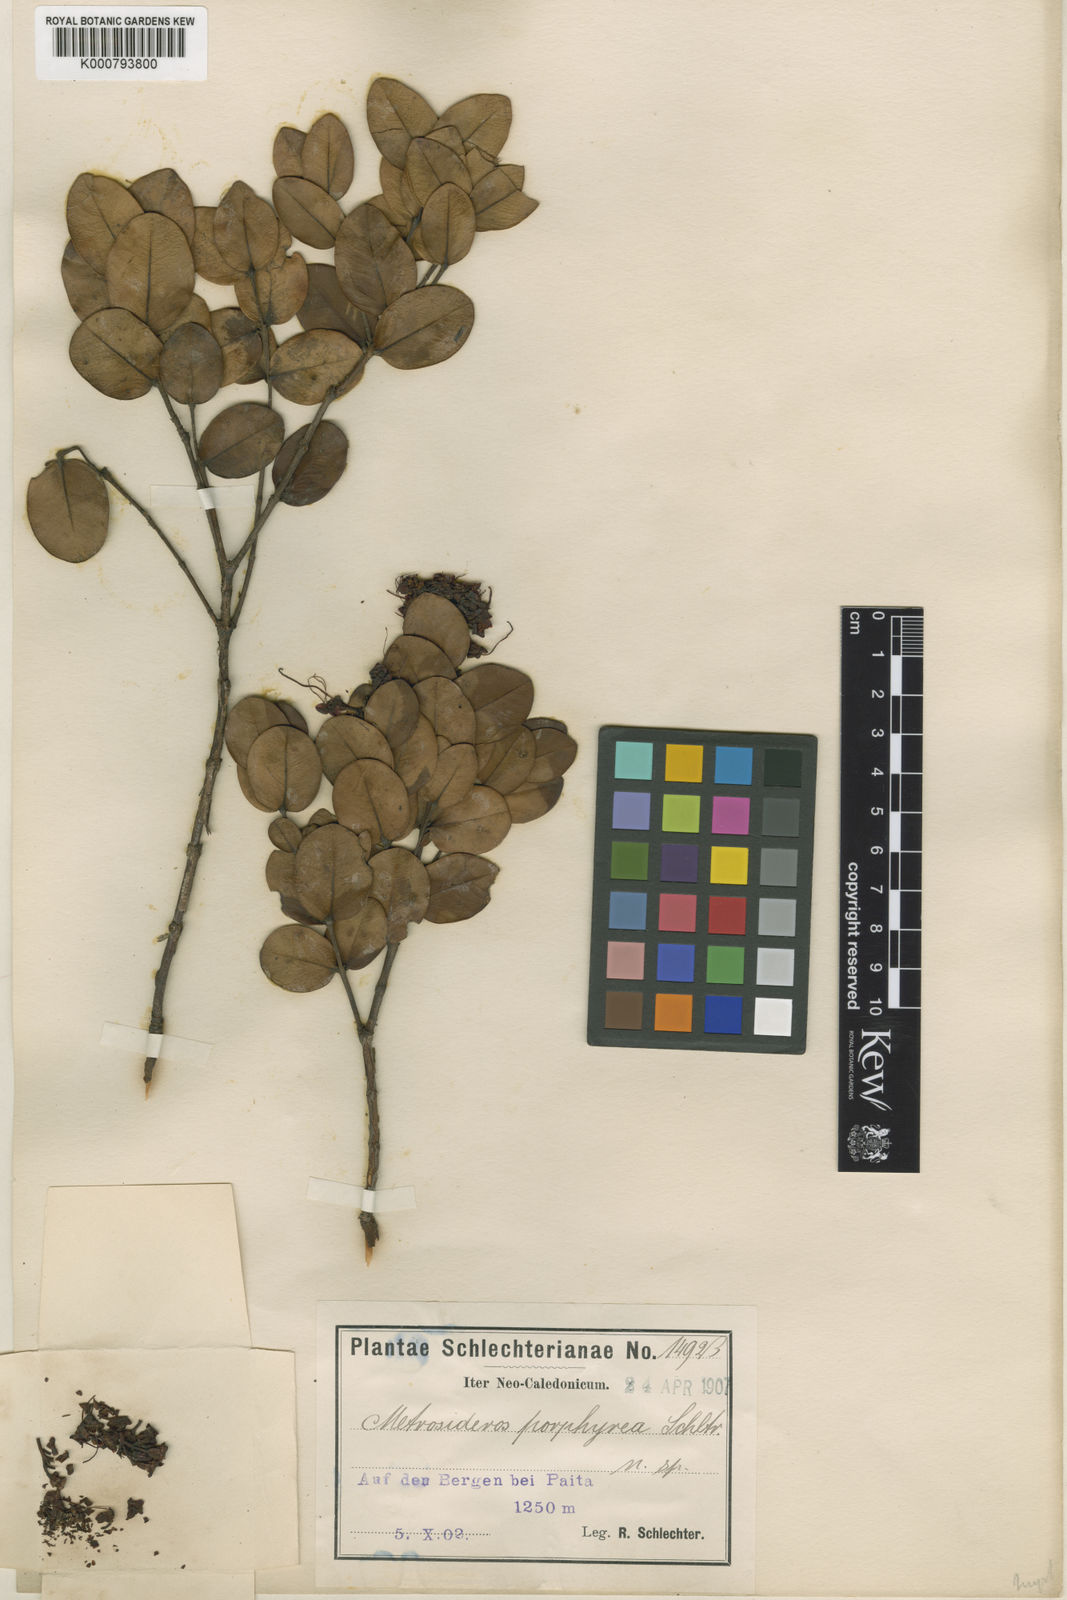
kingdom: Plantae
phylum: Tracheophyta
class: Magnoliopsida
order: Myrtales
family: Myrtaceae
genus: Metrosideros
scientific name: Metrosideros porphyrea
